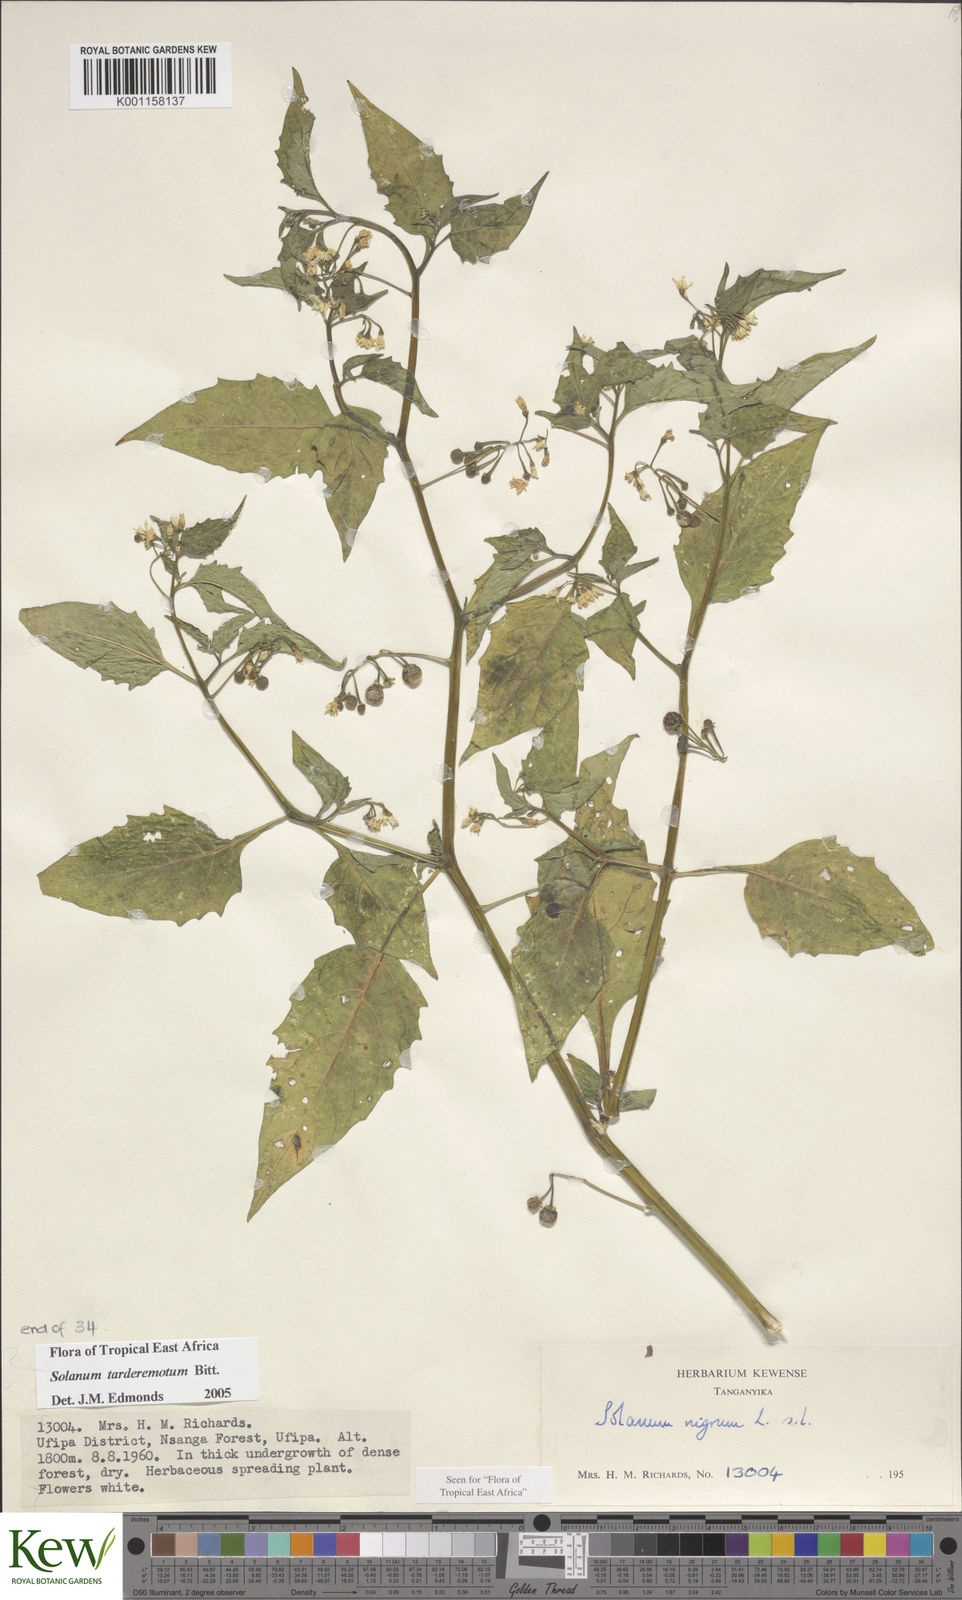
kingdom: Plantae
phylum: Tracheophyta
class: Magnoliopsida
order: Solanales
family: Solanaceae
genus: Solanum
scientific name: Solanum tarderemotum
